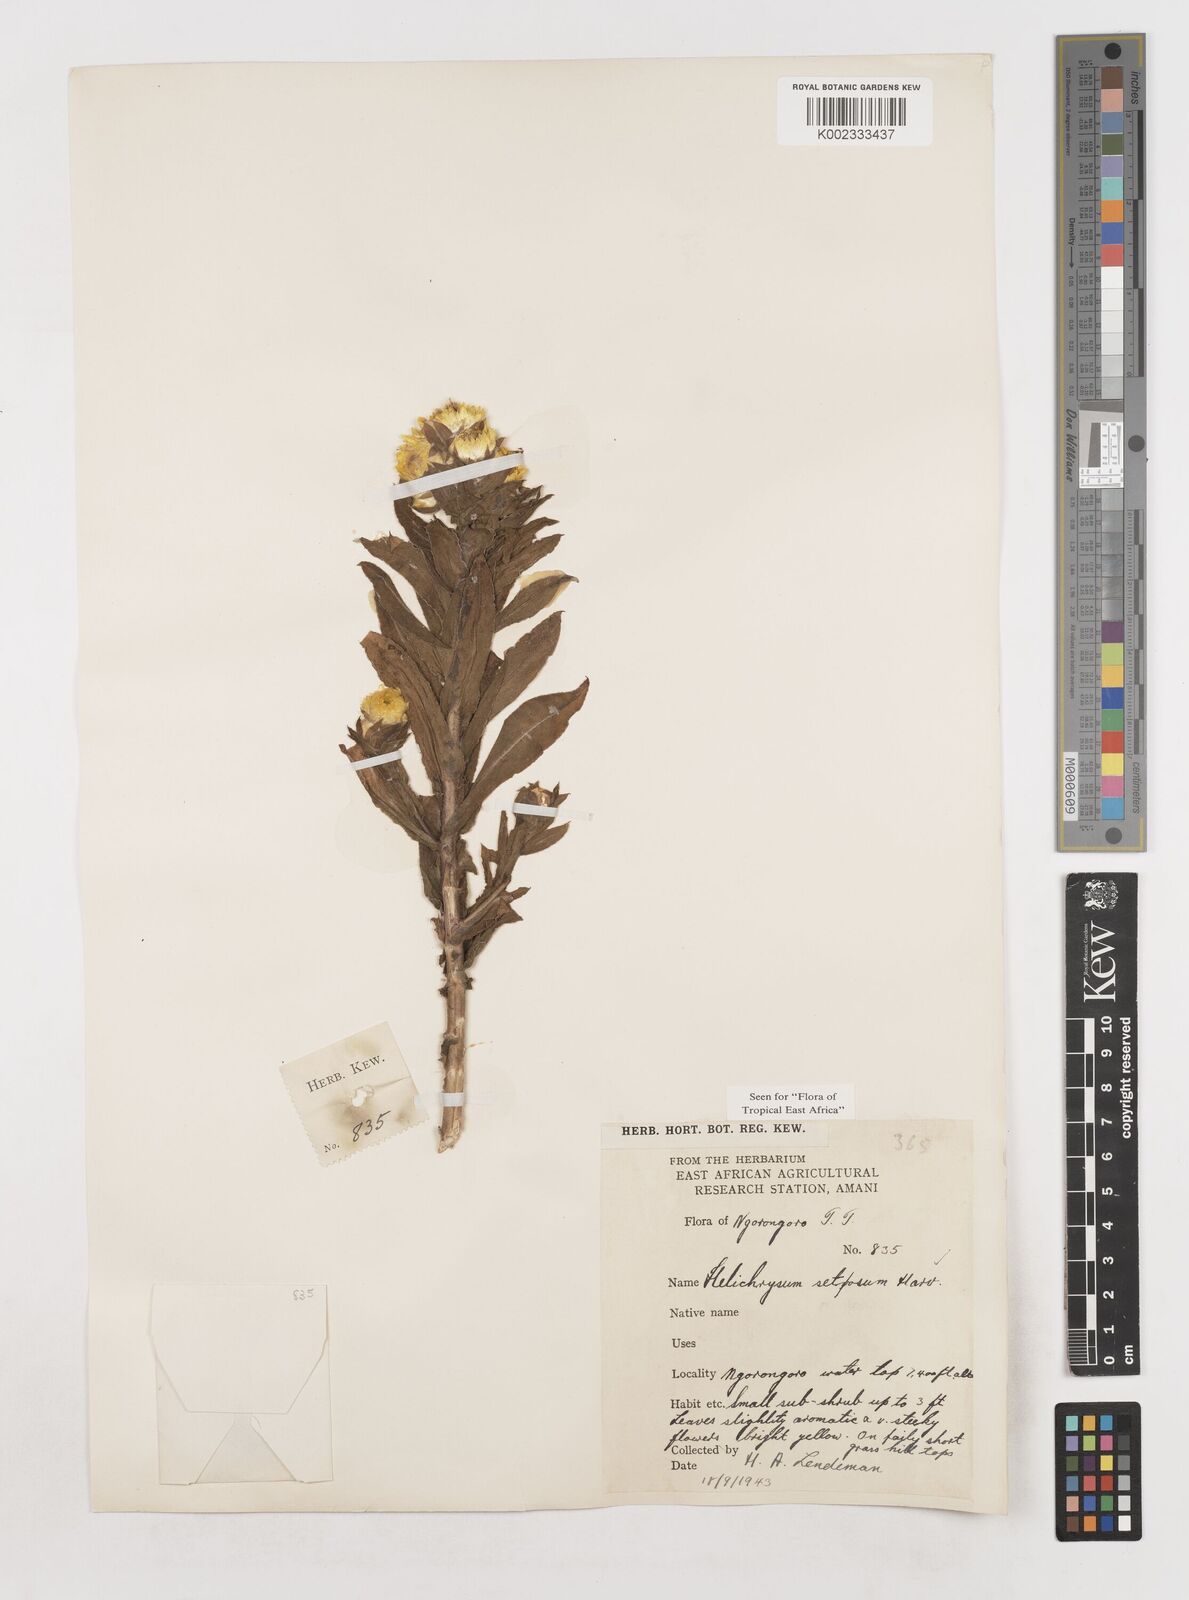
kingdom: Plantae
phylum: Tracheophyta
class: Magnoliopsida
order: Asterales
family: Asteraceae
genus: Helichrysum
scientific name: Helichrysum setosum
